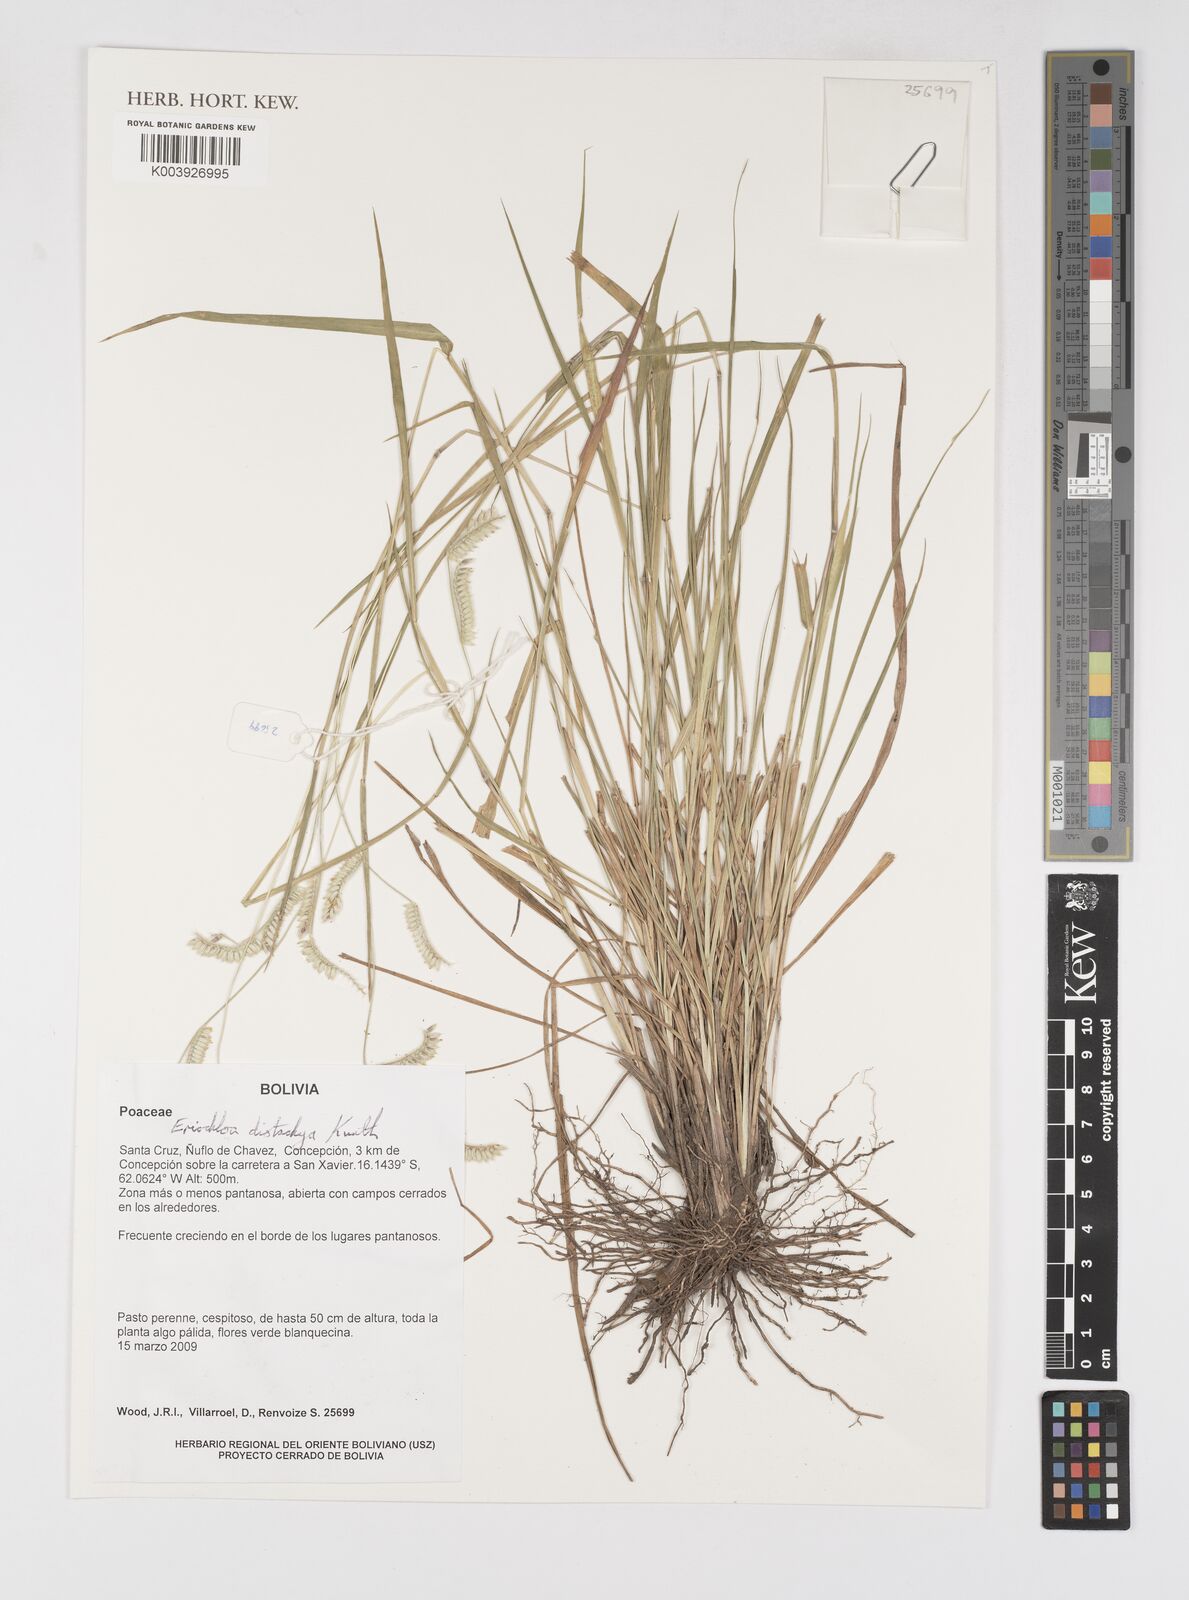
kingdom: Plantae
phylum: Tracheophyta
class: Liliopsida
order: Poales
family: Poaceae
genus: Eriochloa
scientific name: Eriochloa distachya
